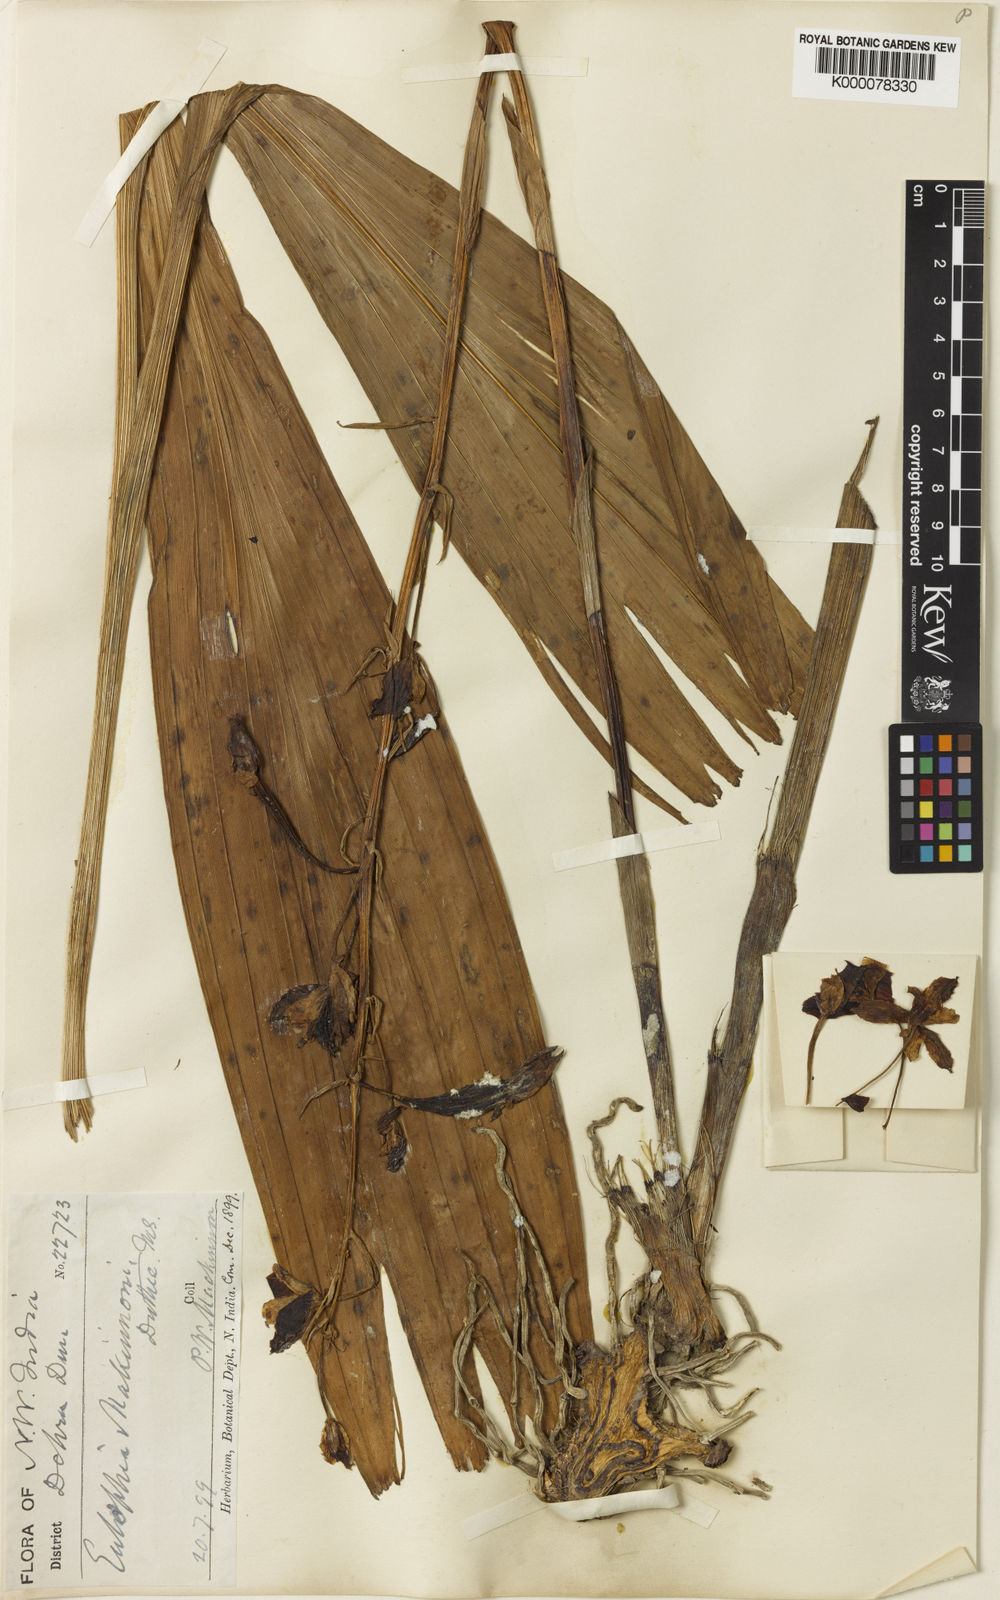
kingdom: Plantae
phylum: Tracheophyta
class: Liliopsida
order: Asparagales
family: Orchidaceae
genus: Eulophia
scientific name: Eulophia mackinnonii
